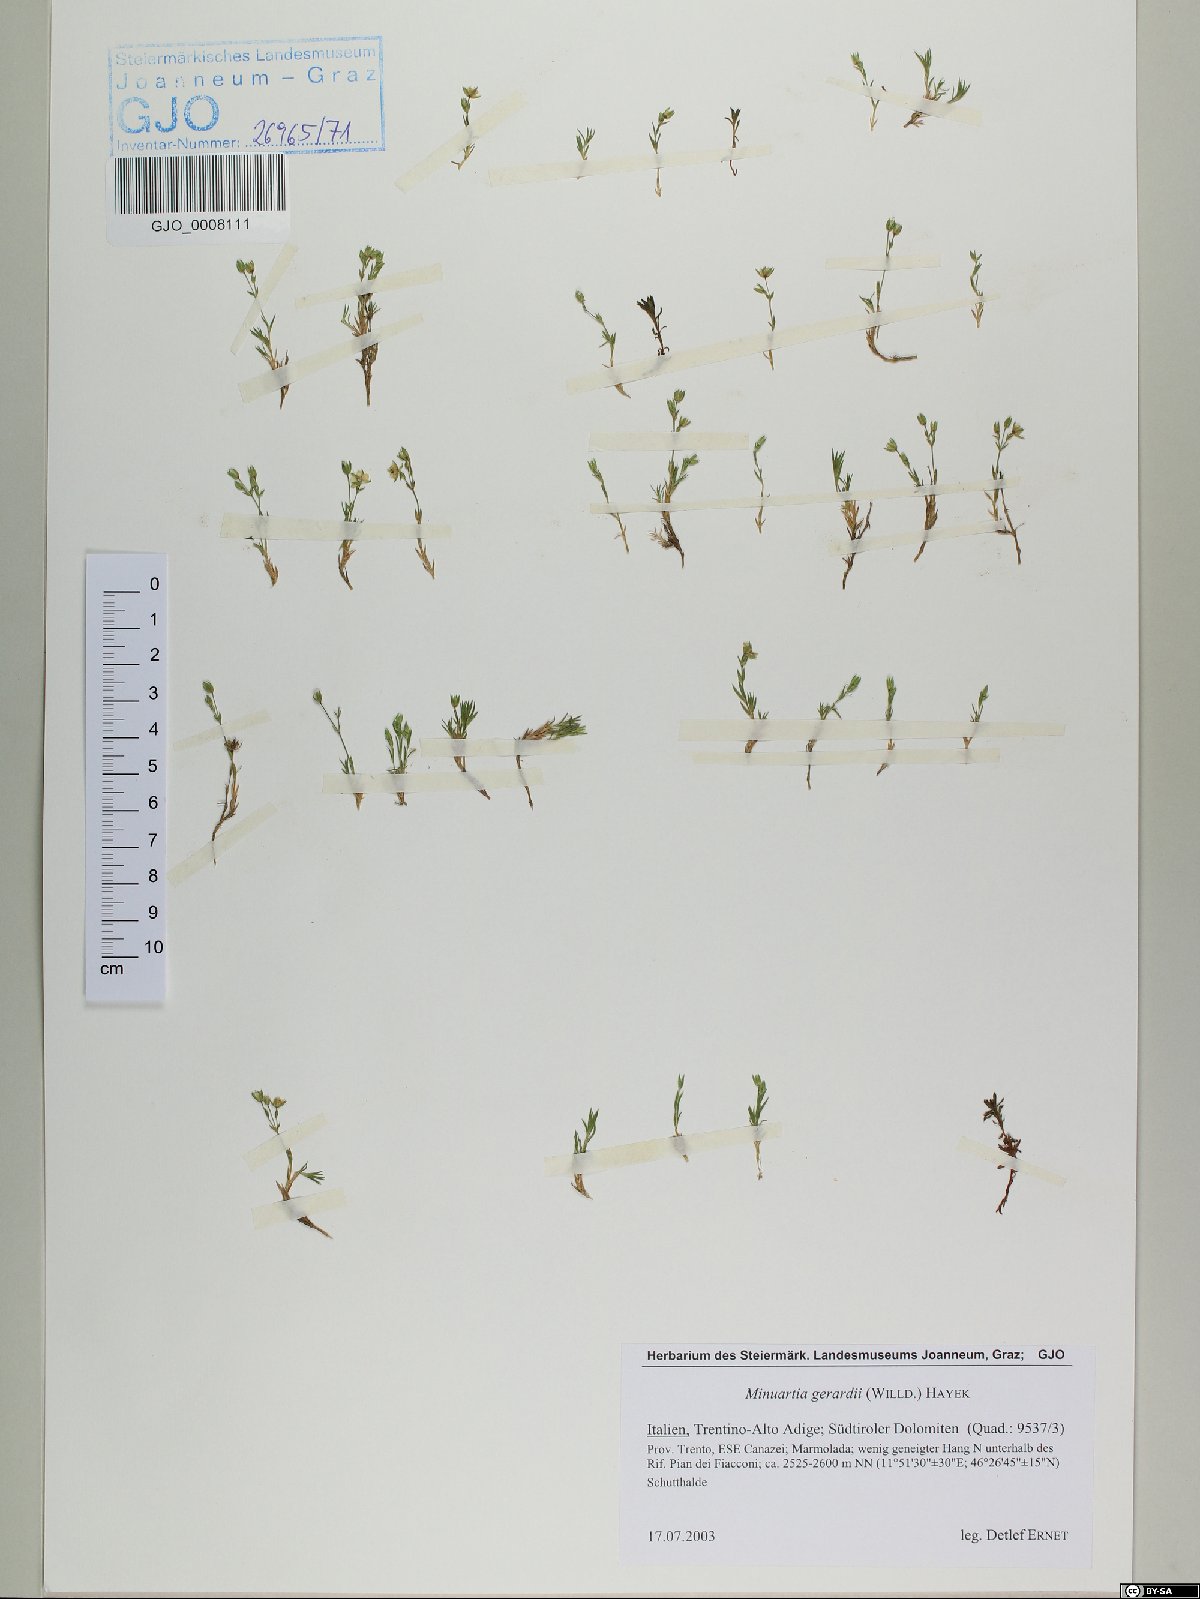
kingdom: Plantae
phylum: Tracheophyta
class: Magnoliopsida
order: Caryophyllales
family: Caryophyllaceae
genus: Sabulina
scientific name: Sabulina verna
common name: Spring sandwort
